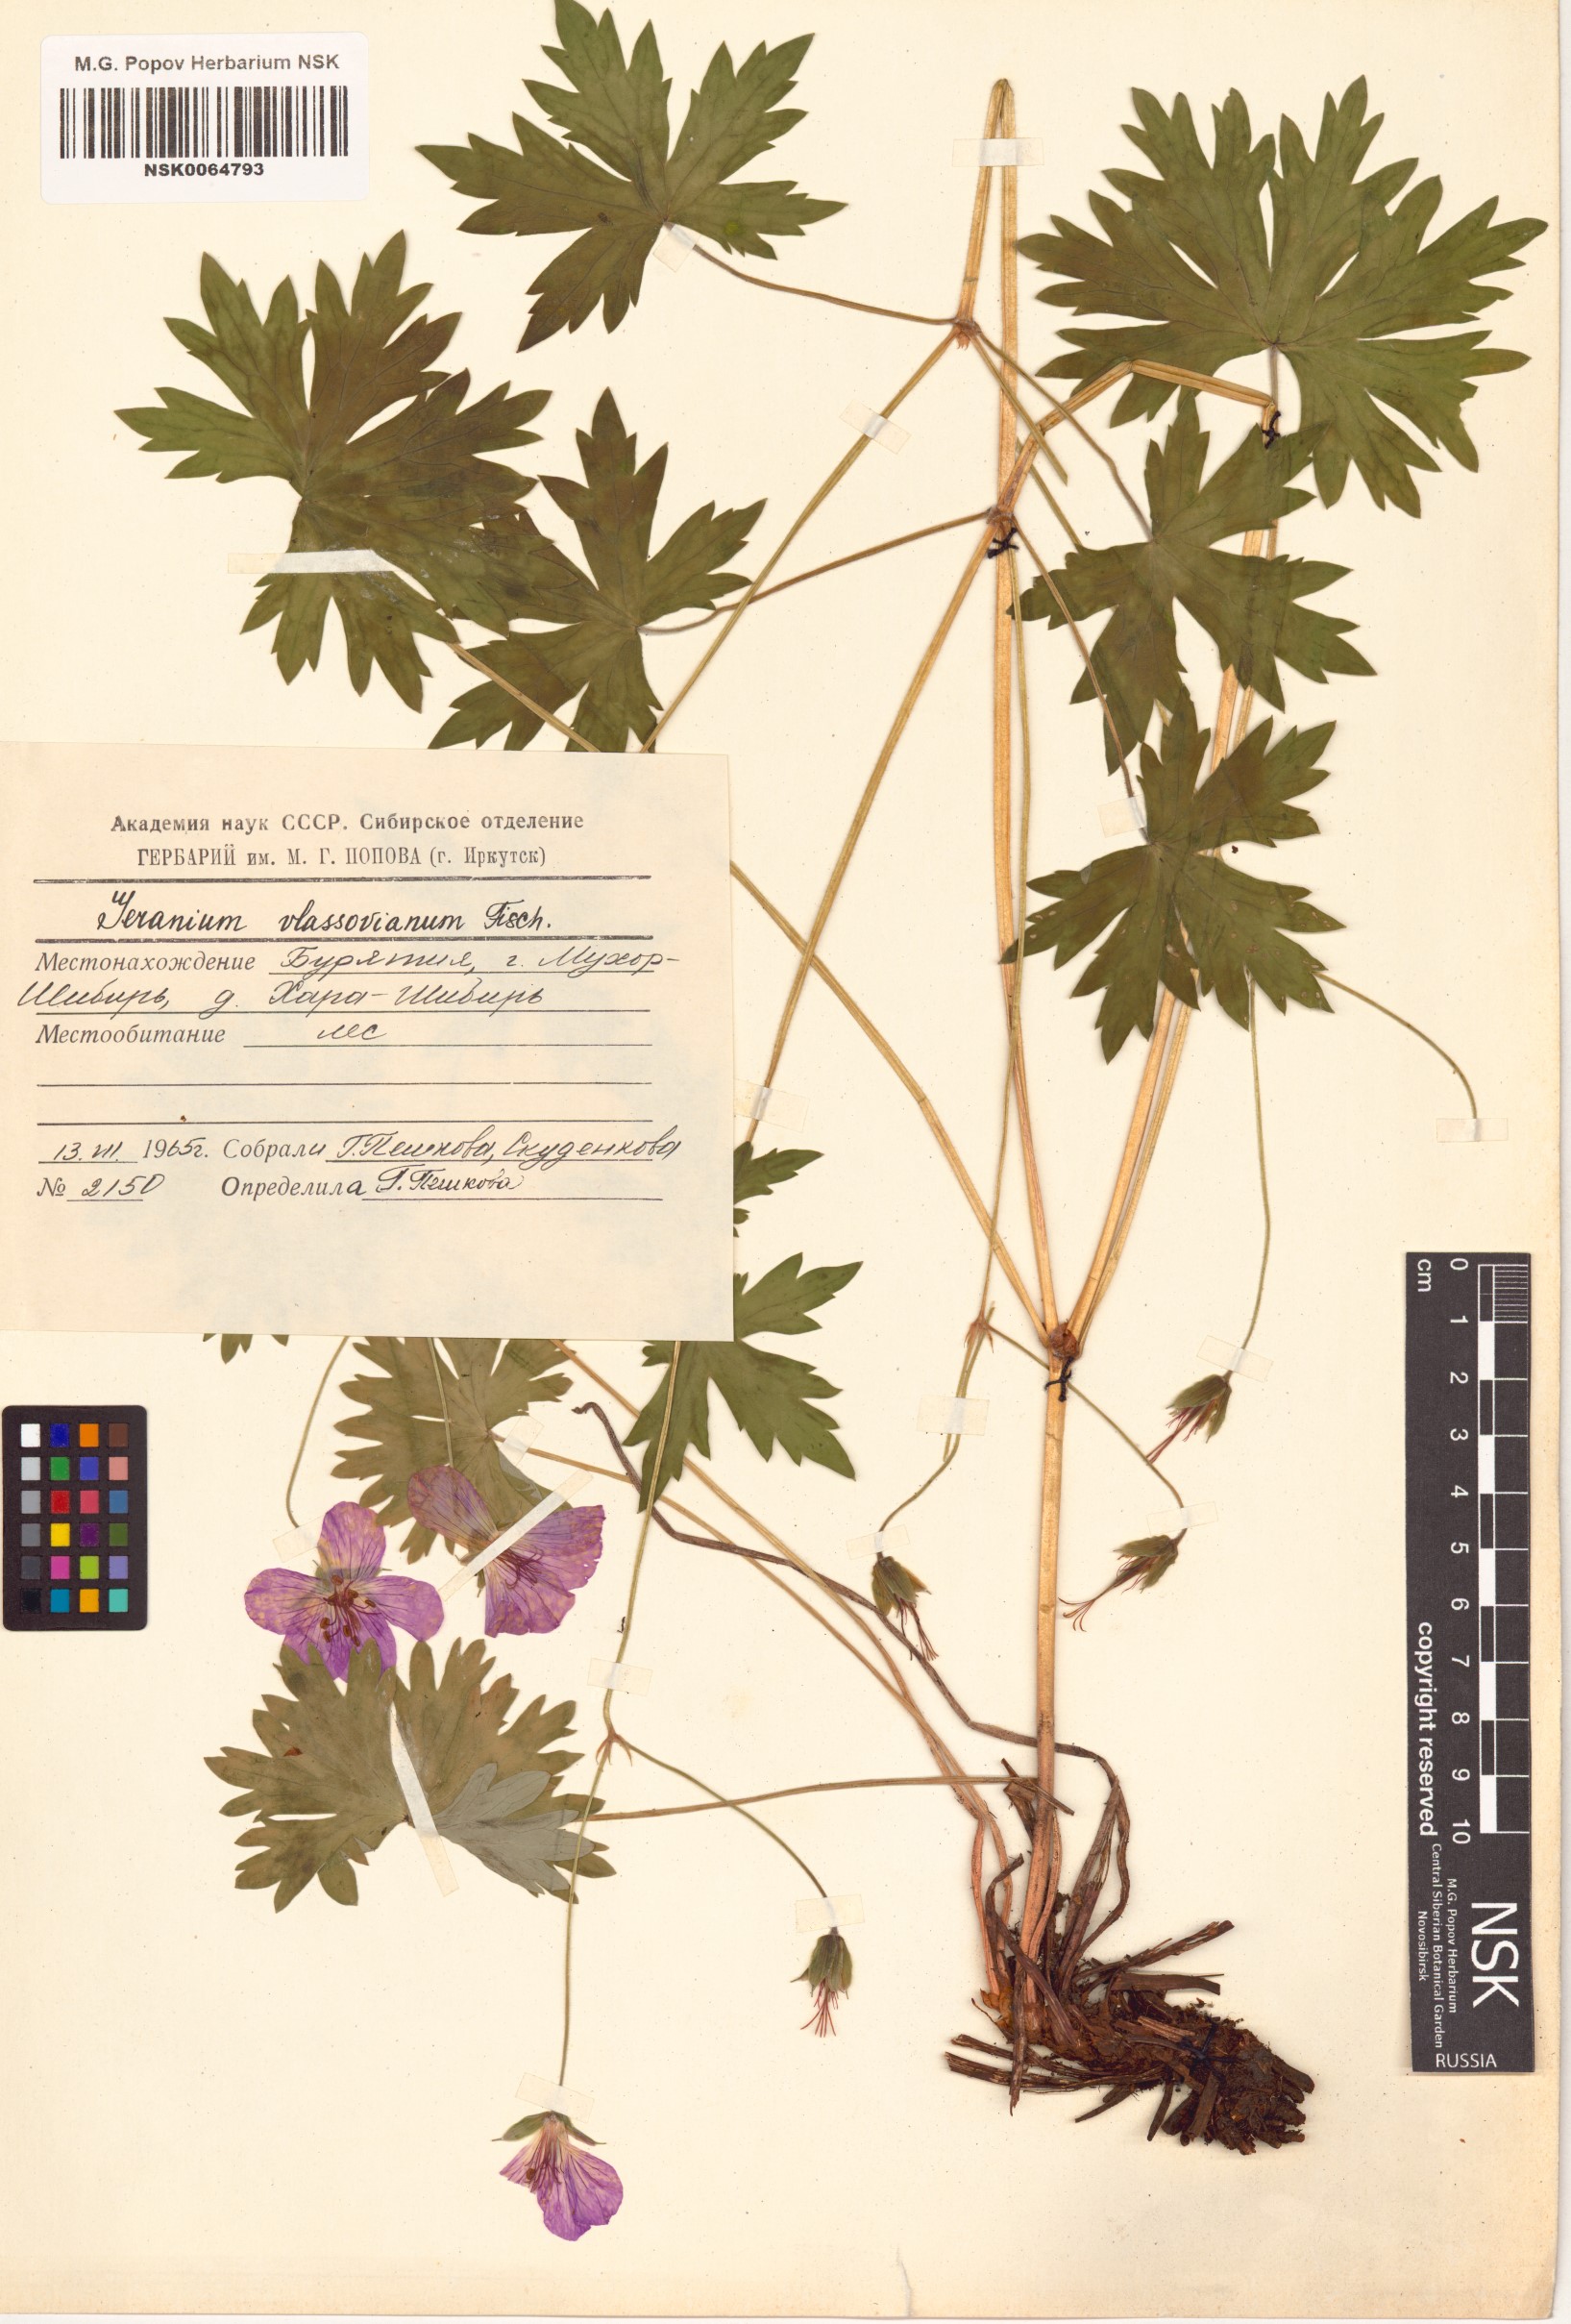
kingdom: Plantae
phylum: Tracheophyta
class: Magnoliopsida
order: Geraniales
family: Geraniaceae
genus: Geranium
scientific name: Geranium wlassovianum
